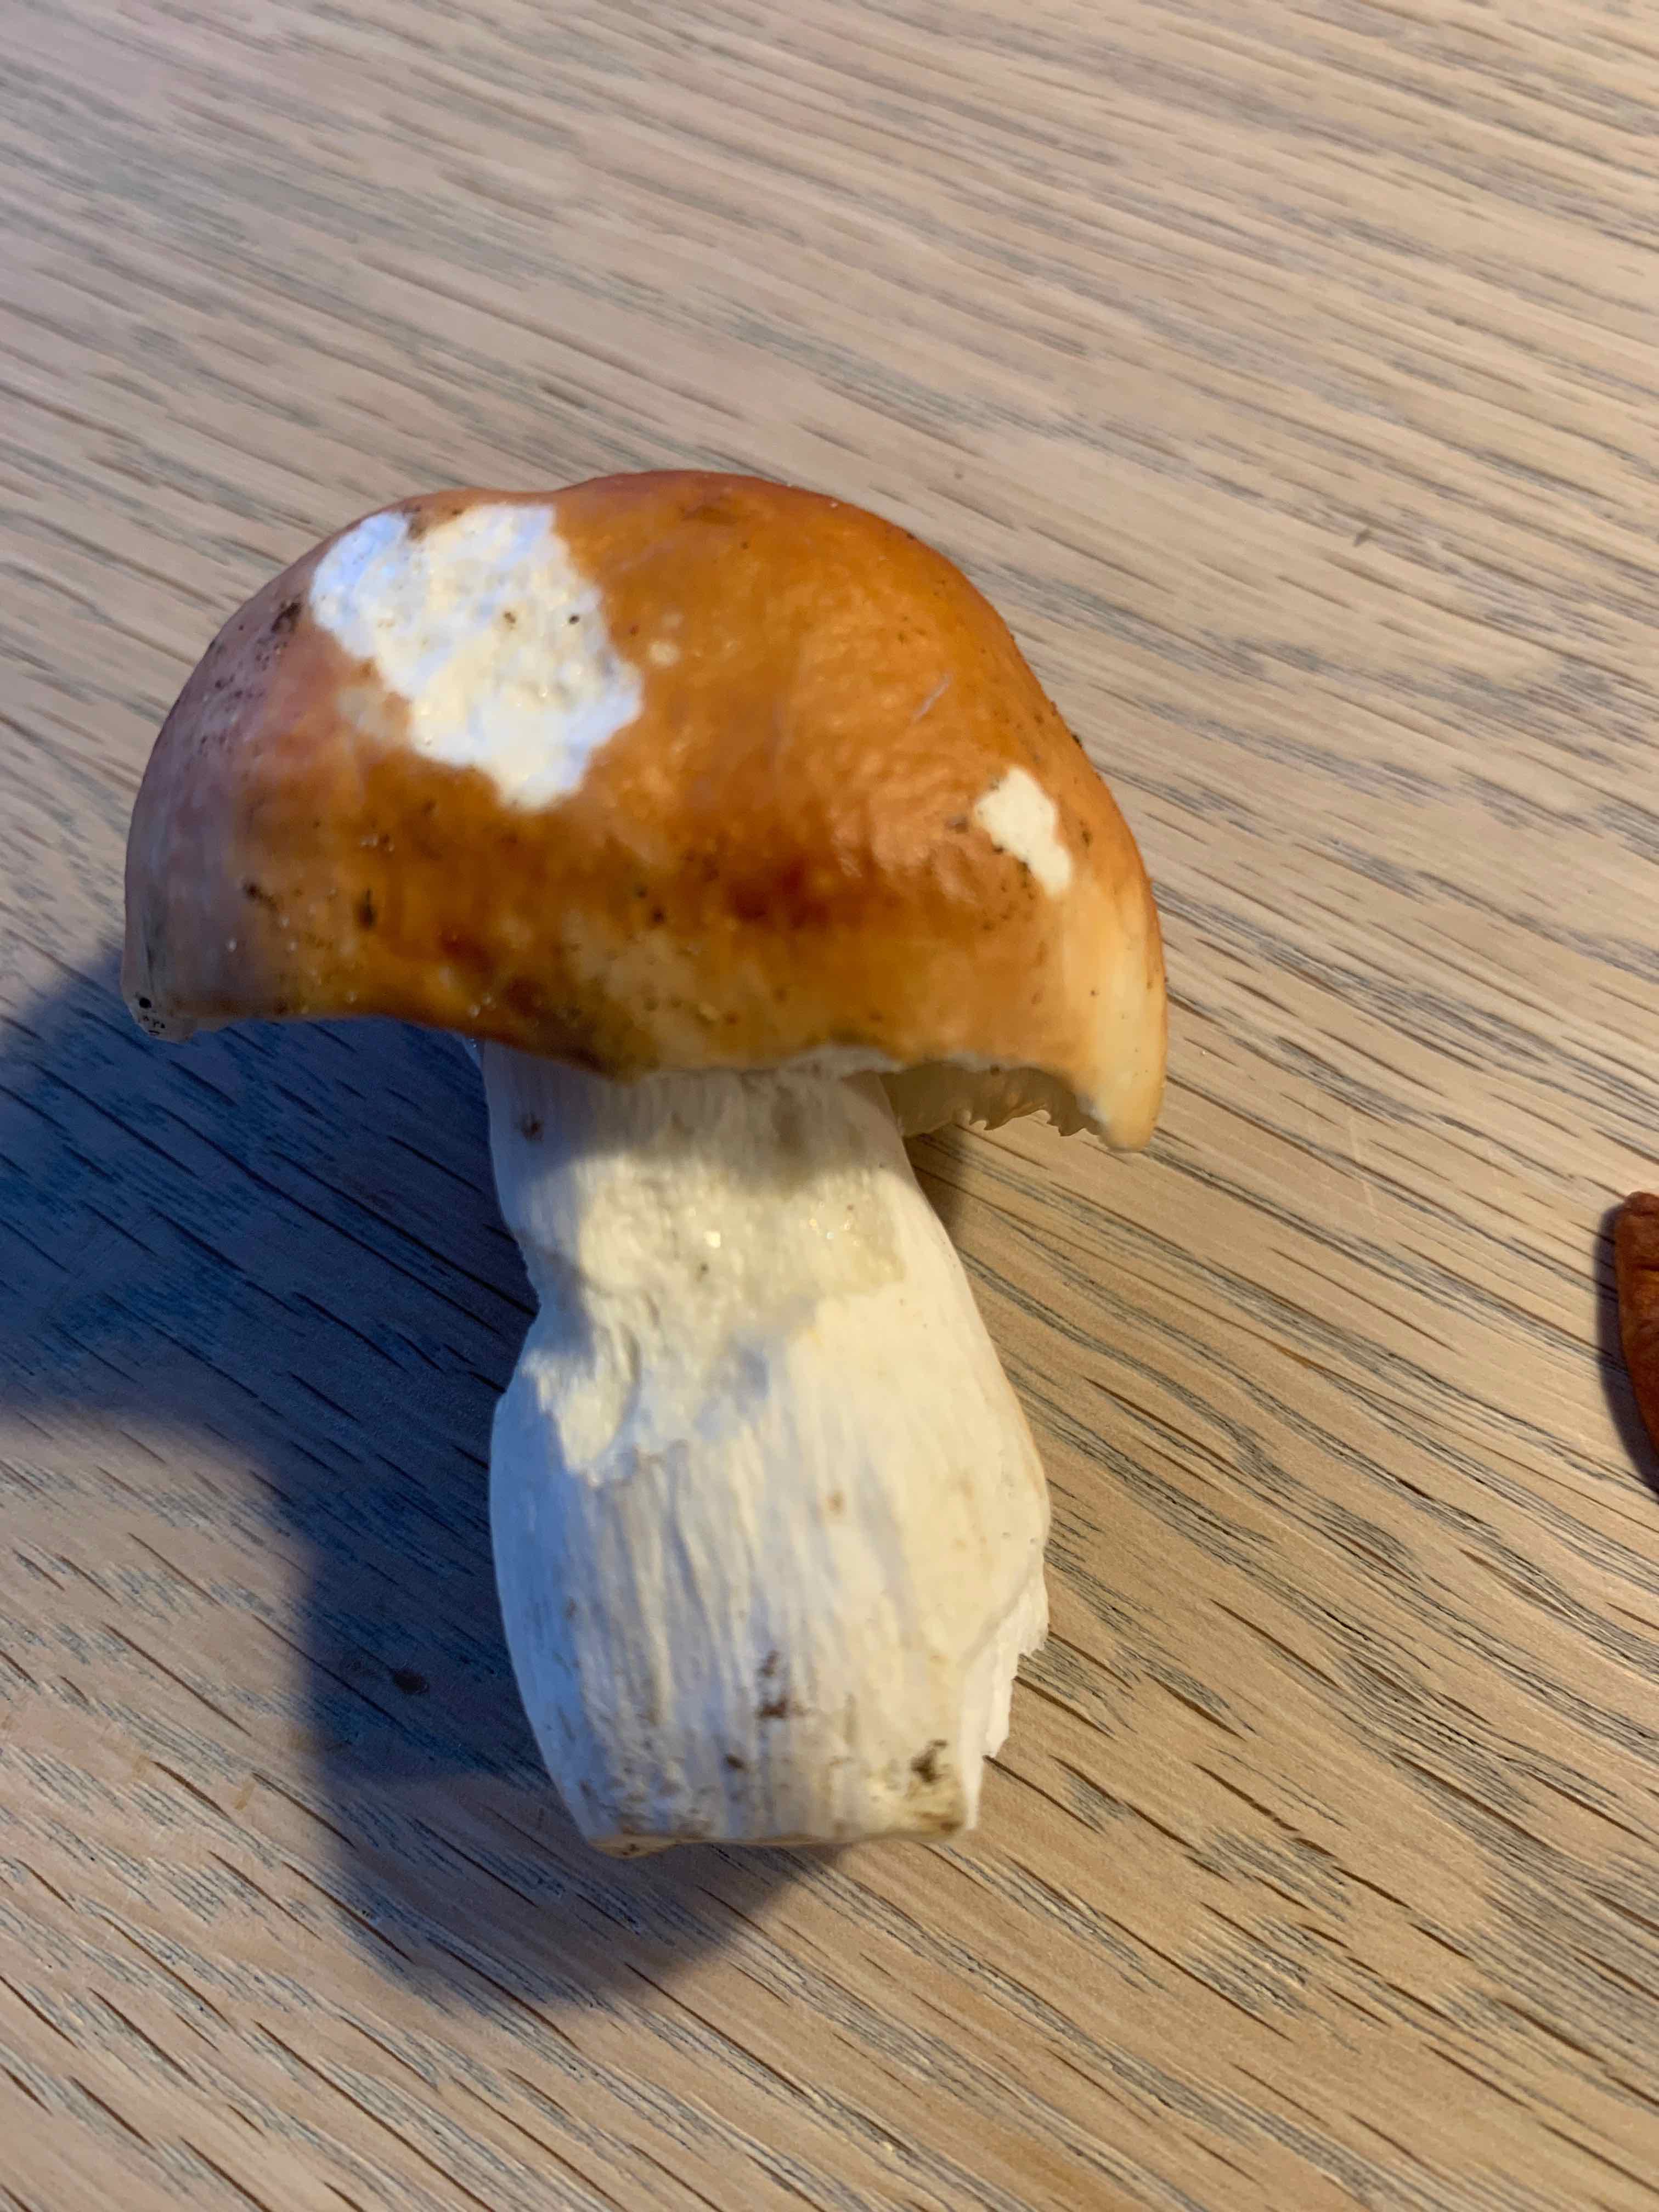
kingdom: Fungi
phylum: Basidiomycota
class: Agaricomycetes
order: Russulales
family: Russulaceae
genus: Russula
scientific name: Russula paludosa
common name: prægtig skørhat
